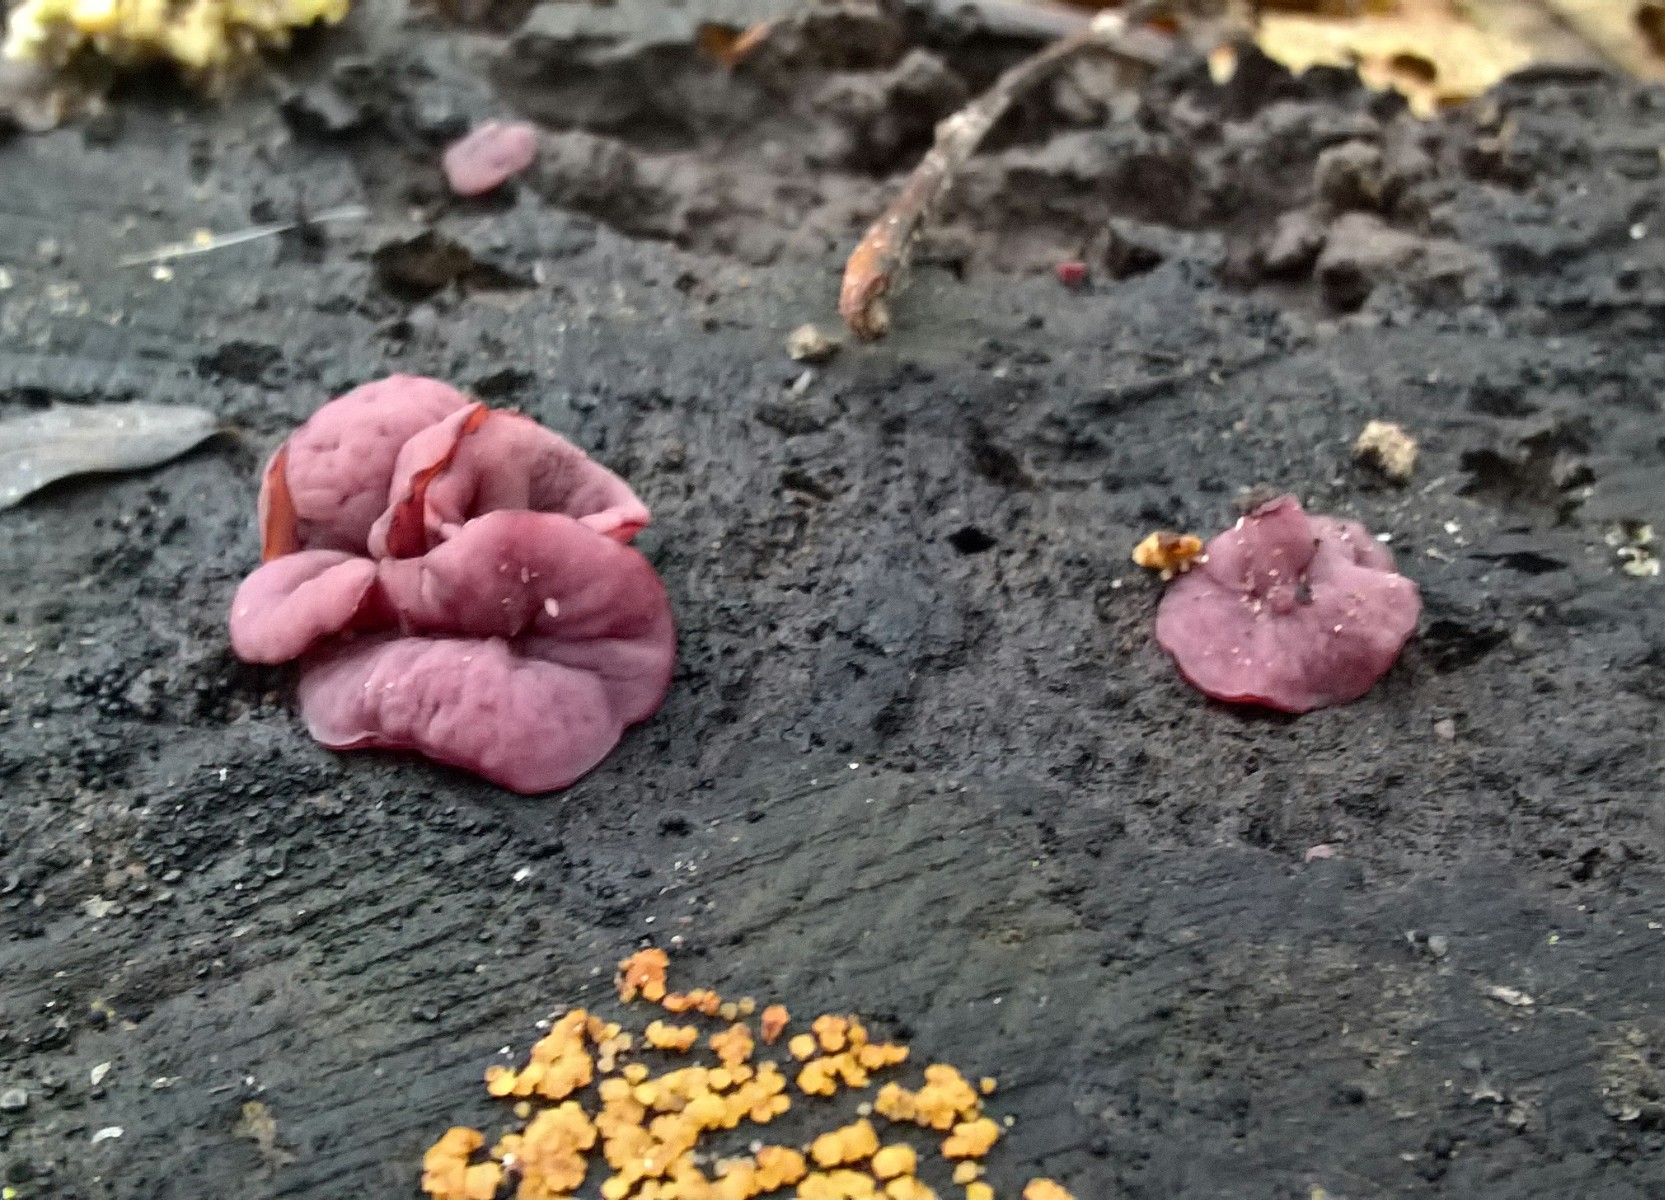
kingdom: Fungi
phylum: Ascomycota
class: Leotiomycetes
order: Helotiales
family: Gelatinodiscaceae
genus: Ascocoryne
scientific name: Ascocoryne cylichnium
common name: stor sejskive
